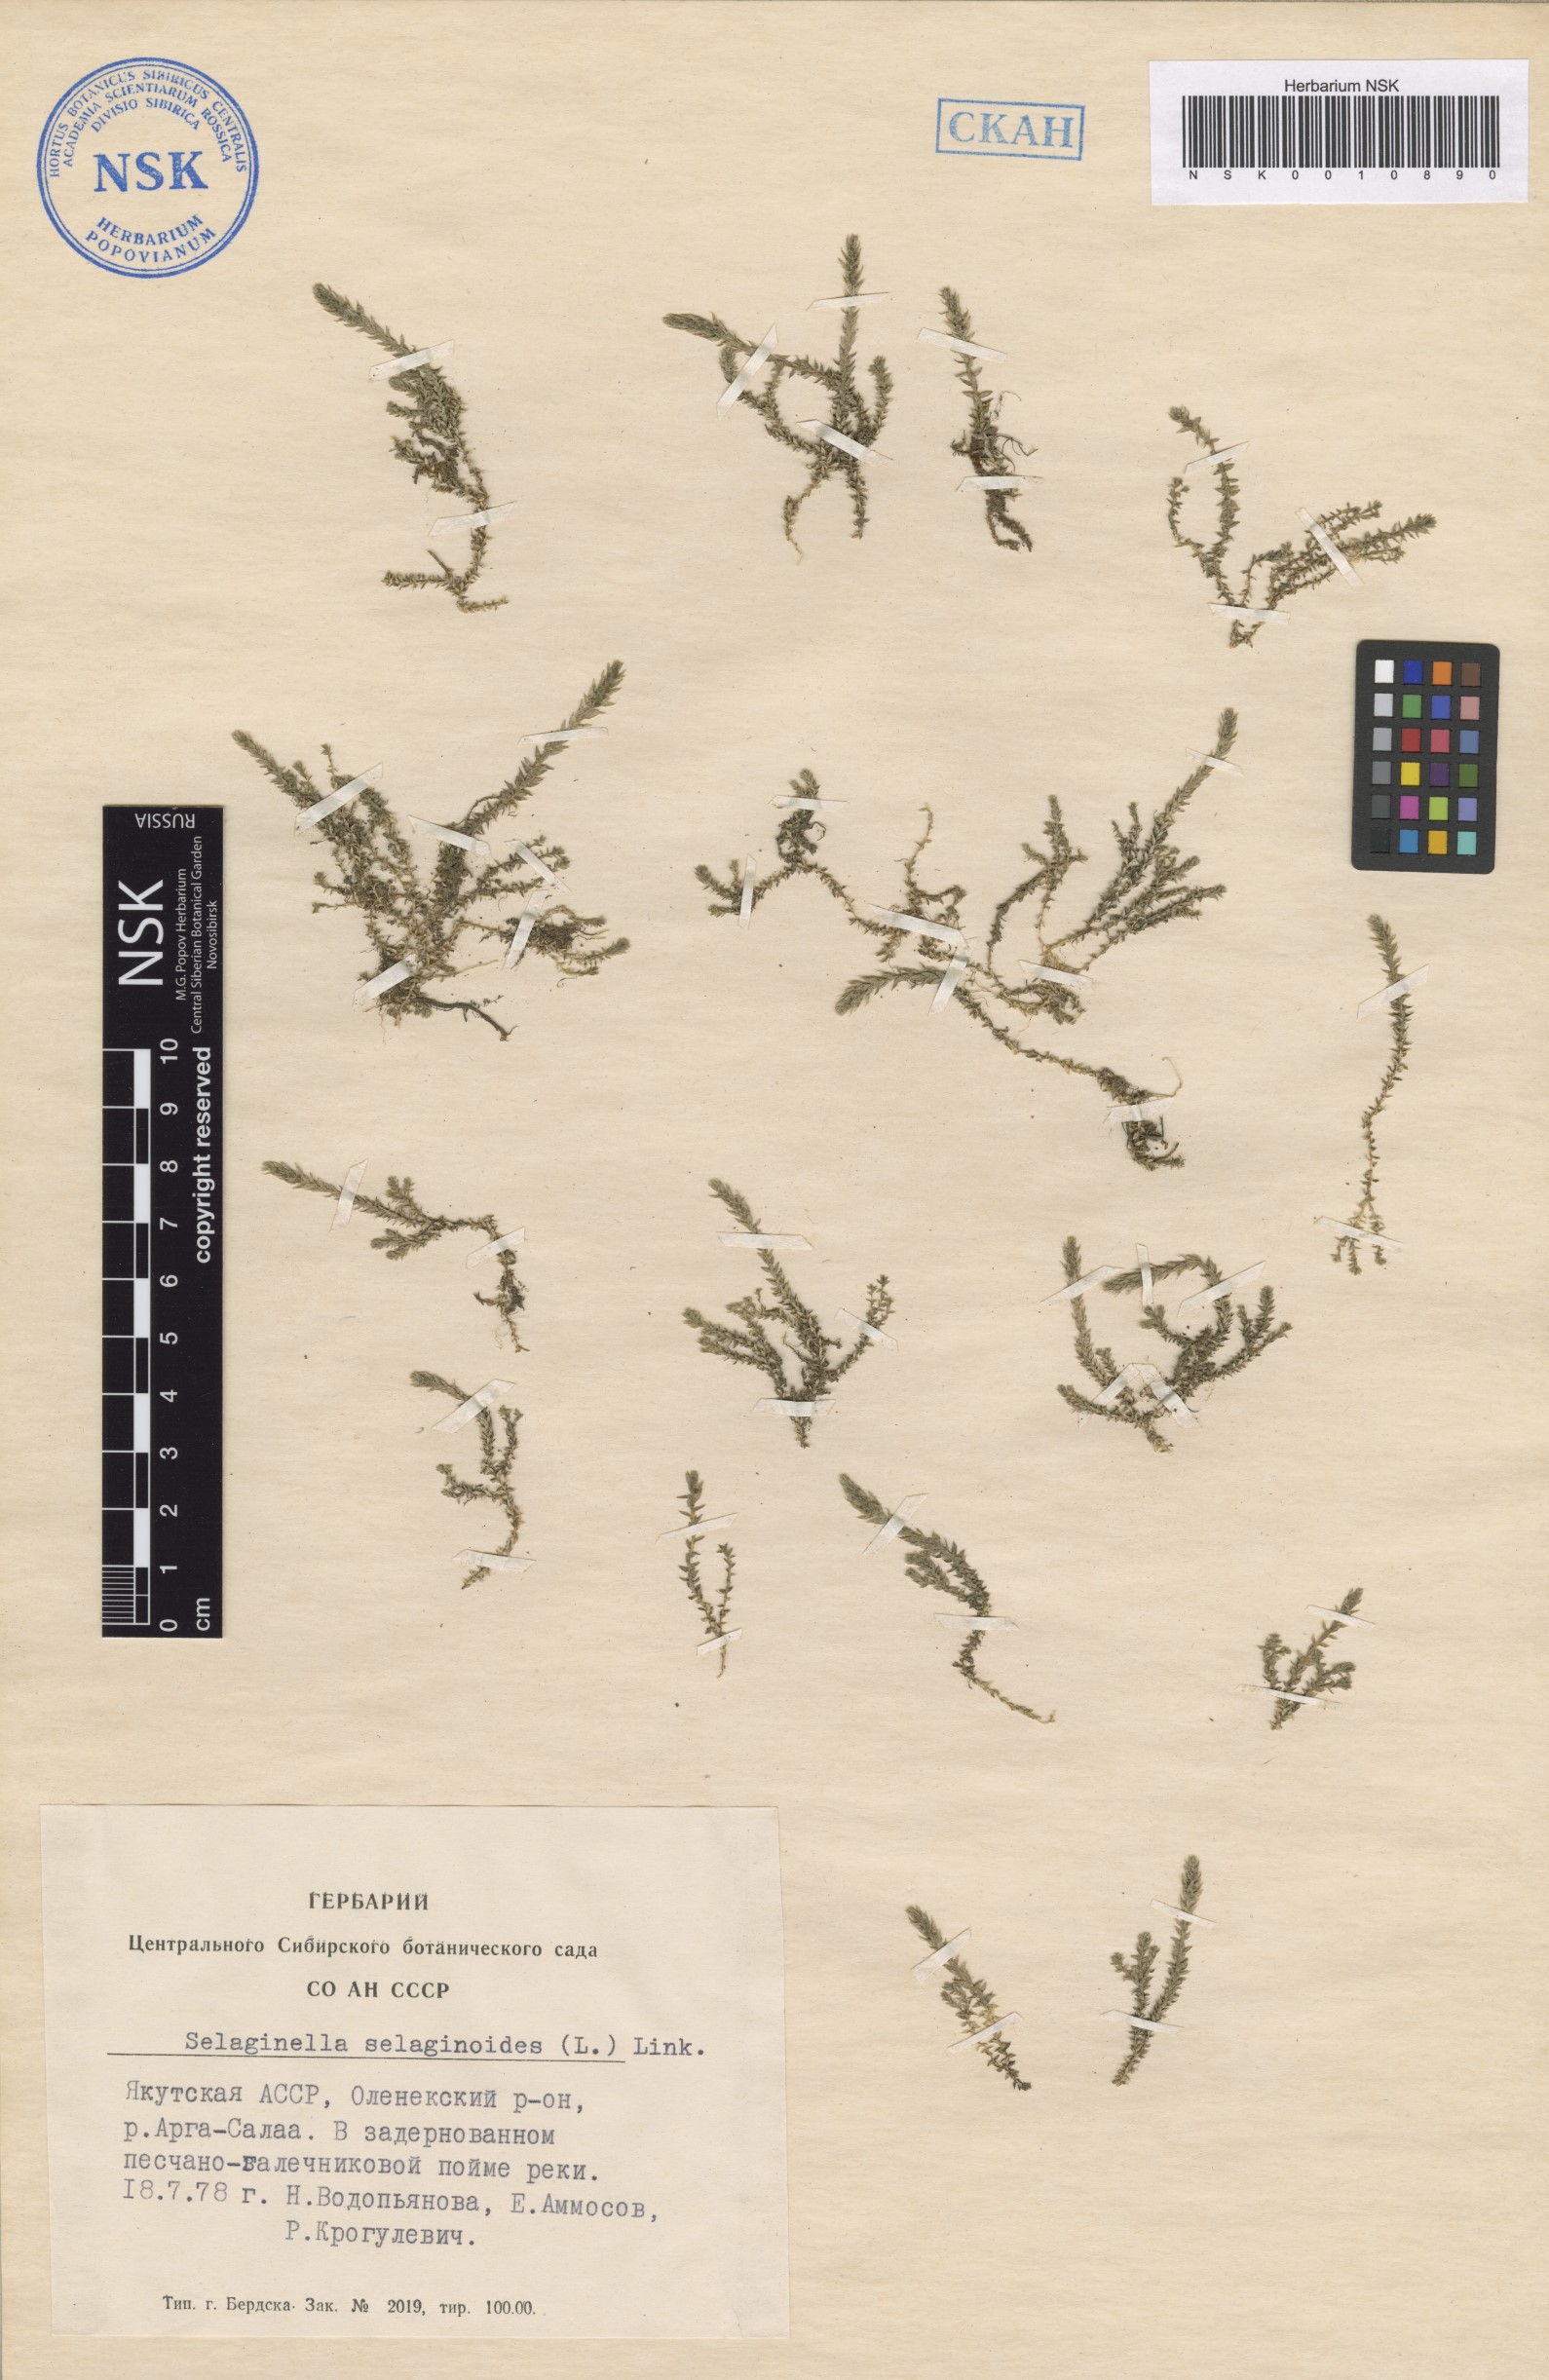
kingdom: Plantae
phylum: Tracheophyta
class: Lycopodiopsida
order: Selaginellales
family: Selaginellaceae
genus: Selaginella
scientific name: Selaginella selaginoides
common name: Prickly mountain-moss
